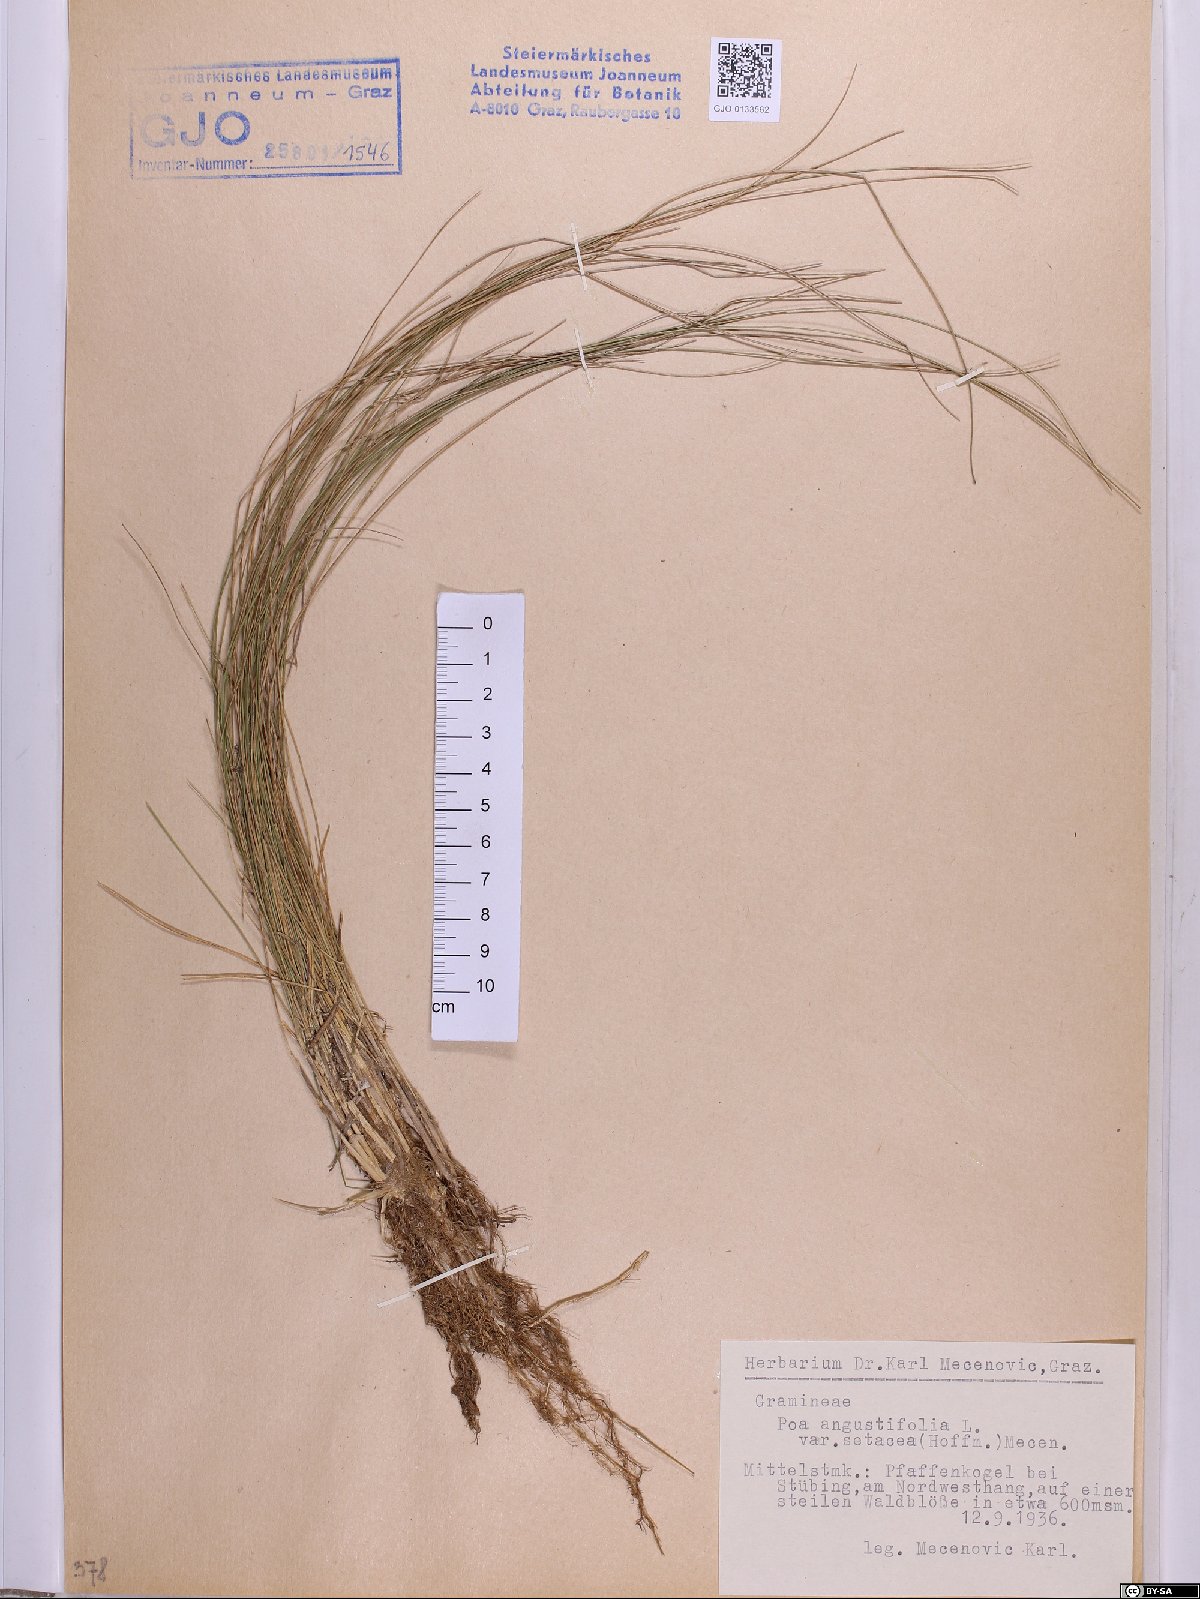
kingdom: Plantae
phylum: Tracheophyta
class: Liliopsida
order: Poales
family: Poaceae
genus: Poa
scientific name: Poa angustifolia
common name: Narrow-leaved meadow-grass
